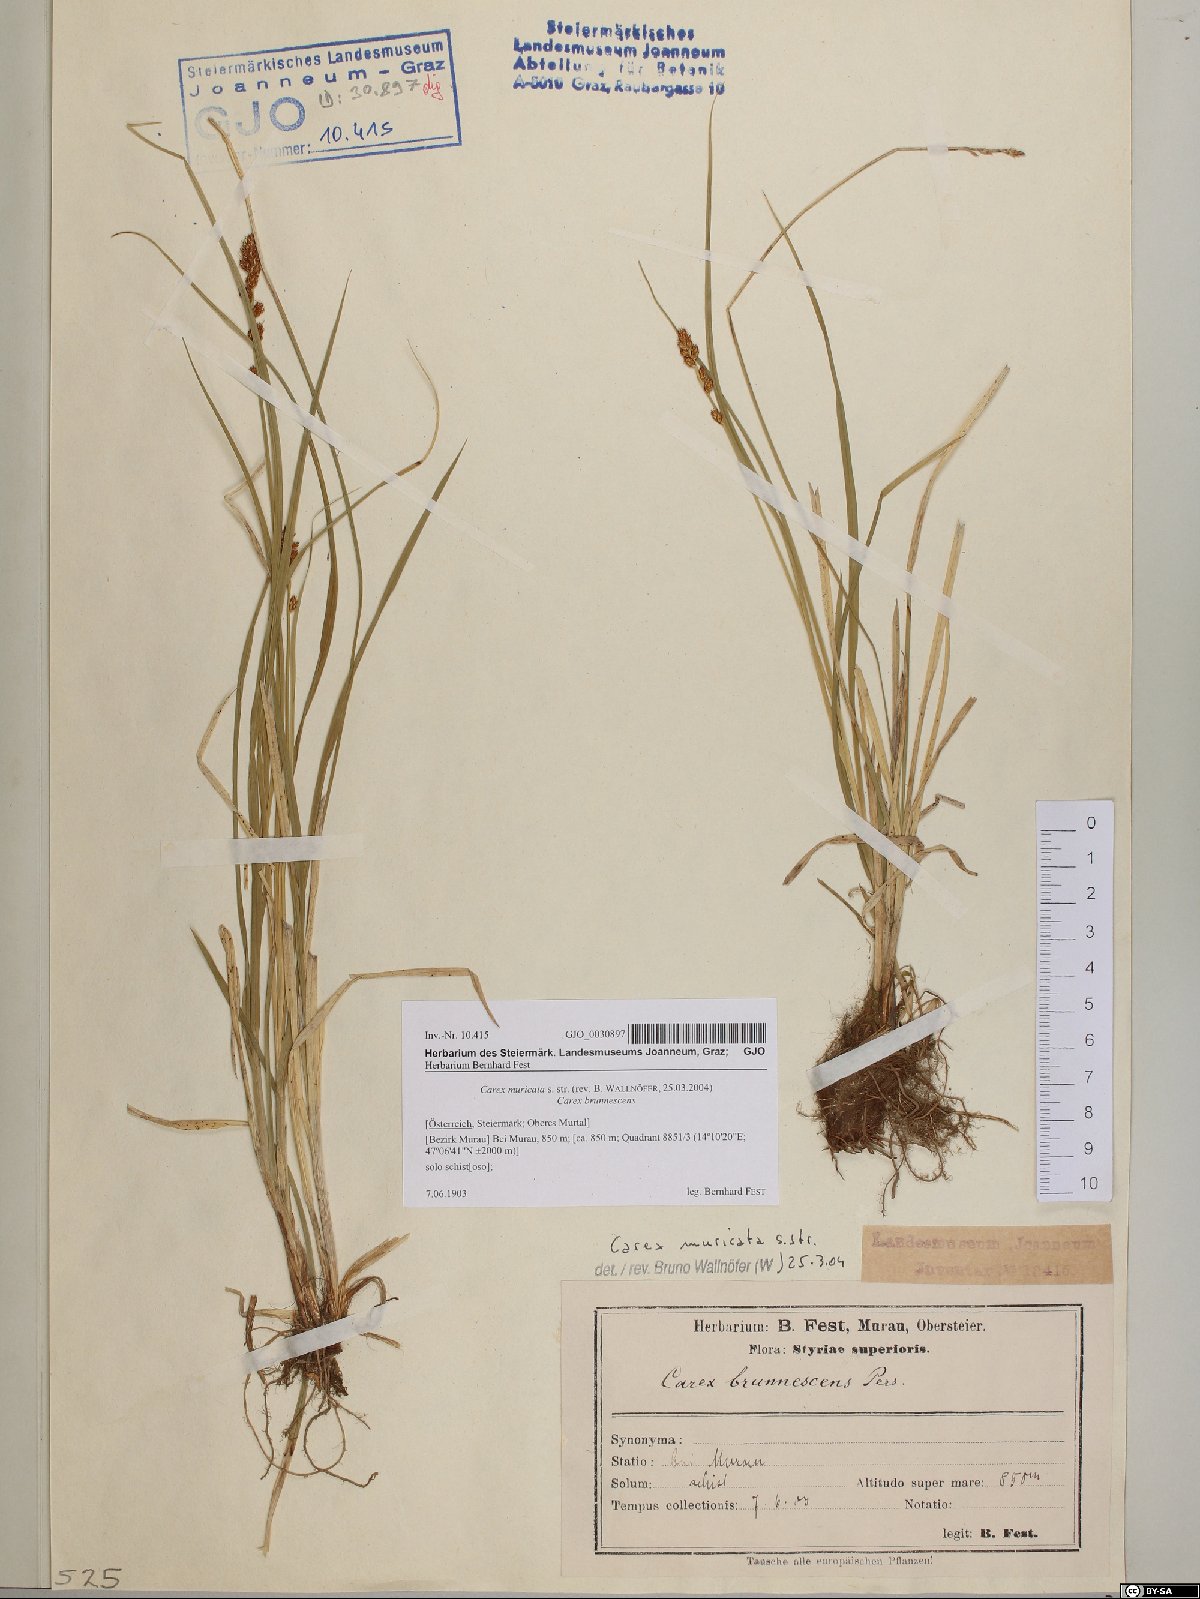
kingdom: Plantae
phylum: Tracheophyta
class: Liliopsida
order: Poales
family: Cyperaceae
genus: Carex
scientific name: Carex muricata
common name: Rough sedge
